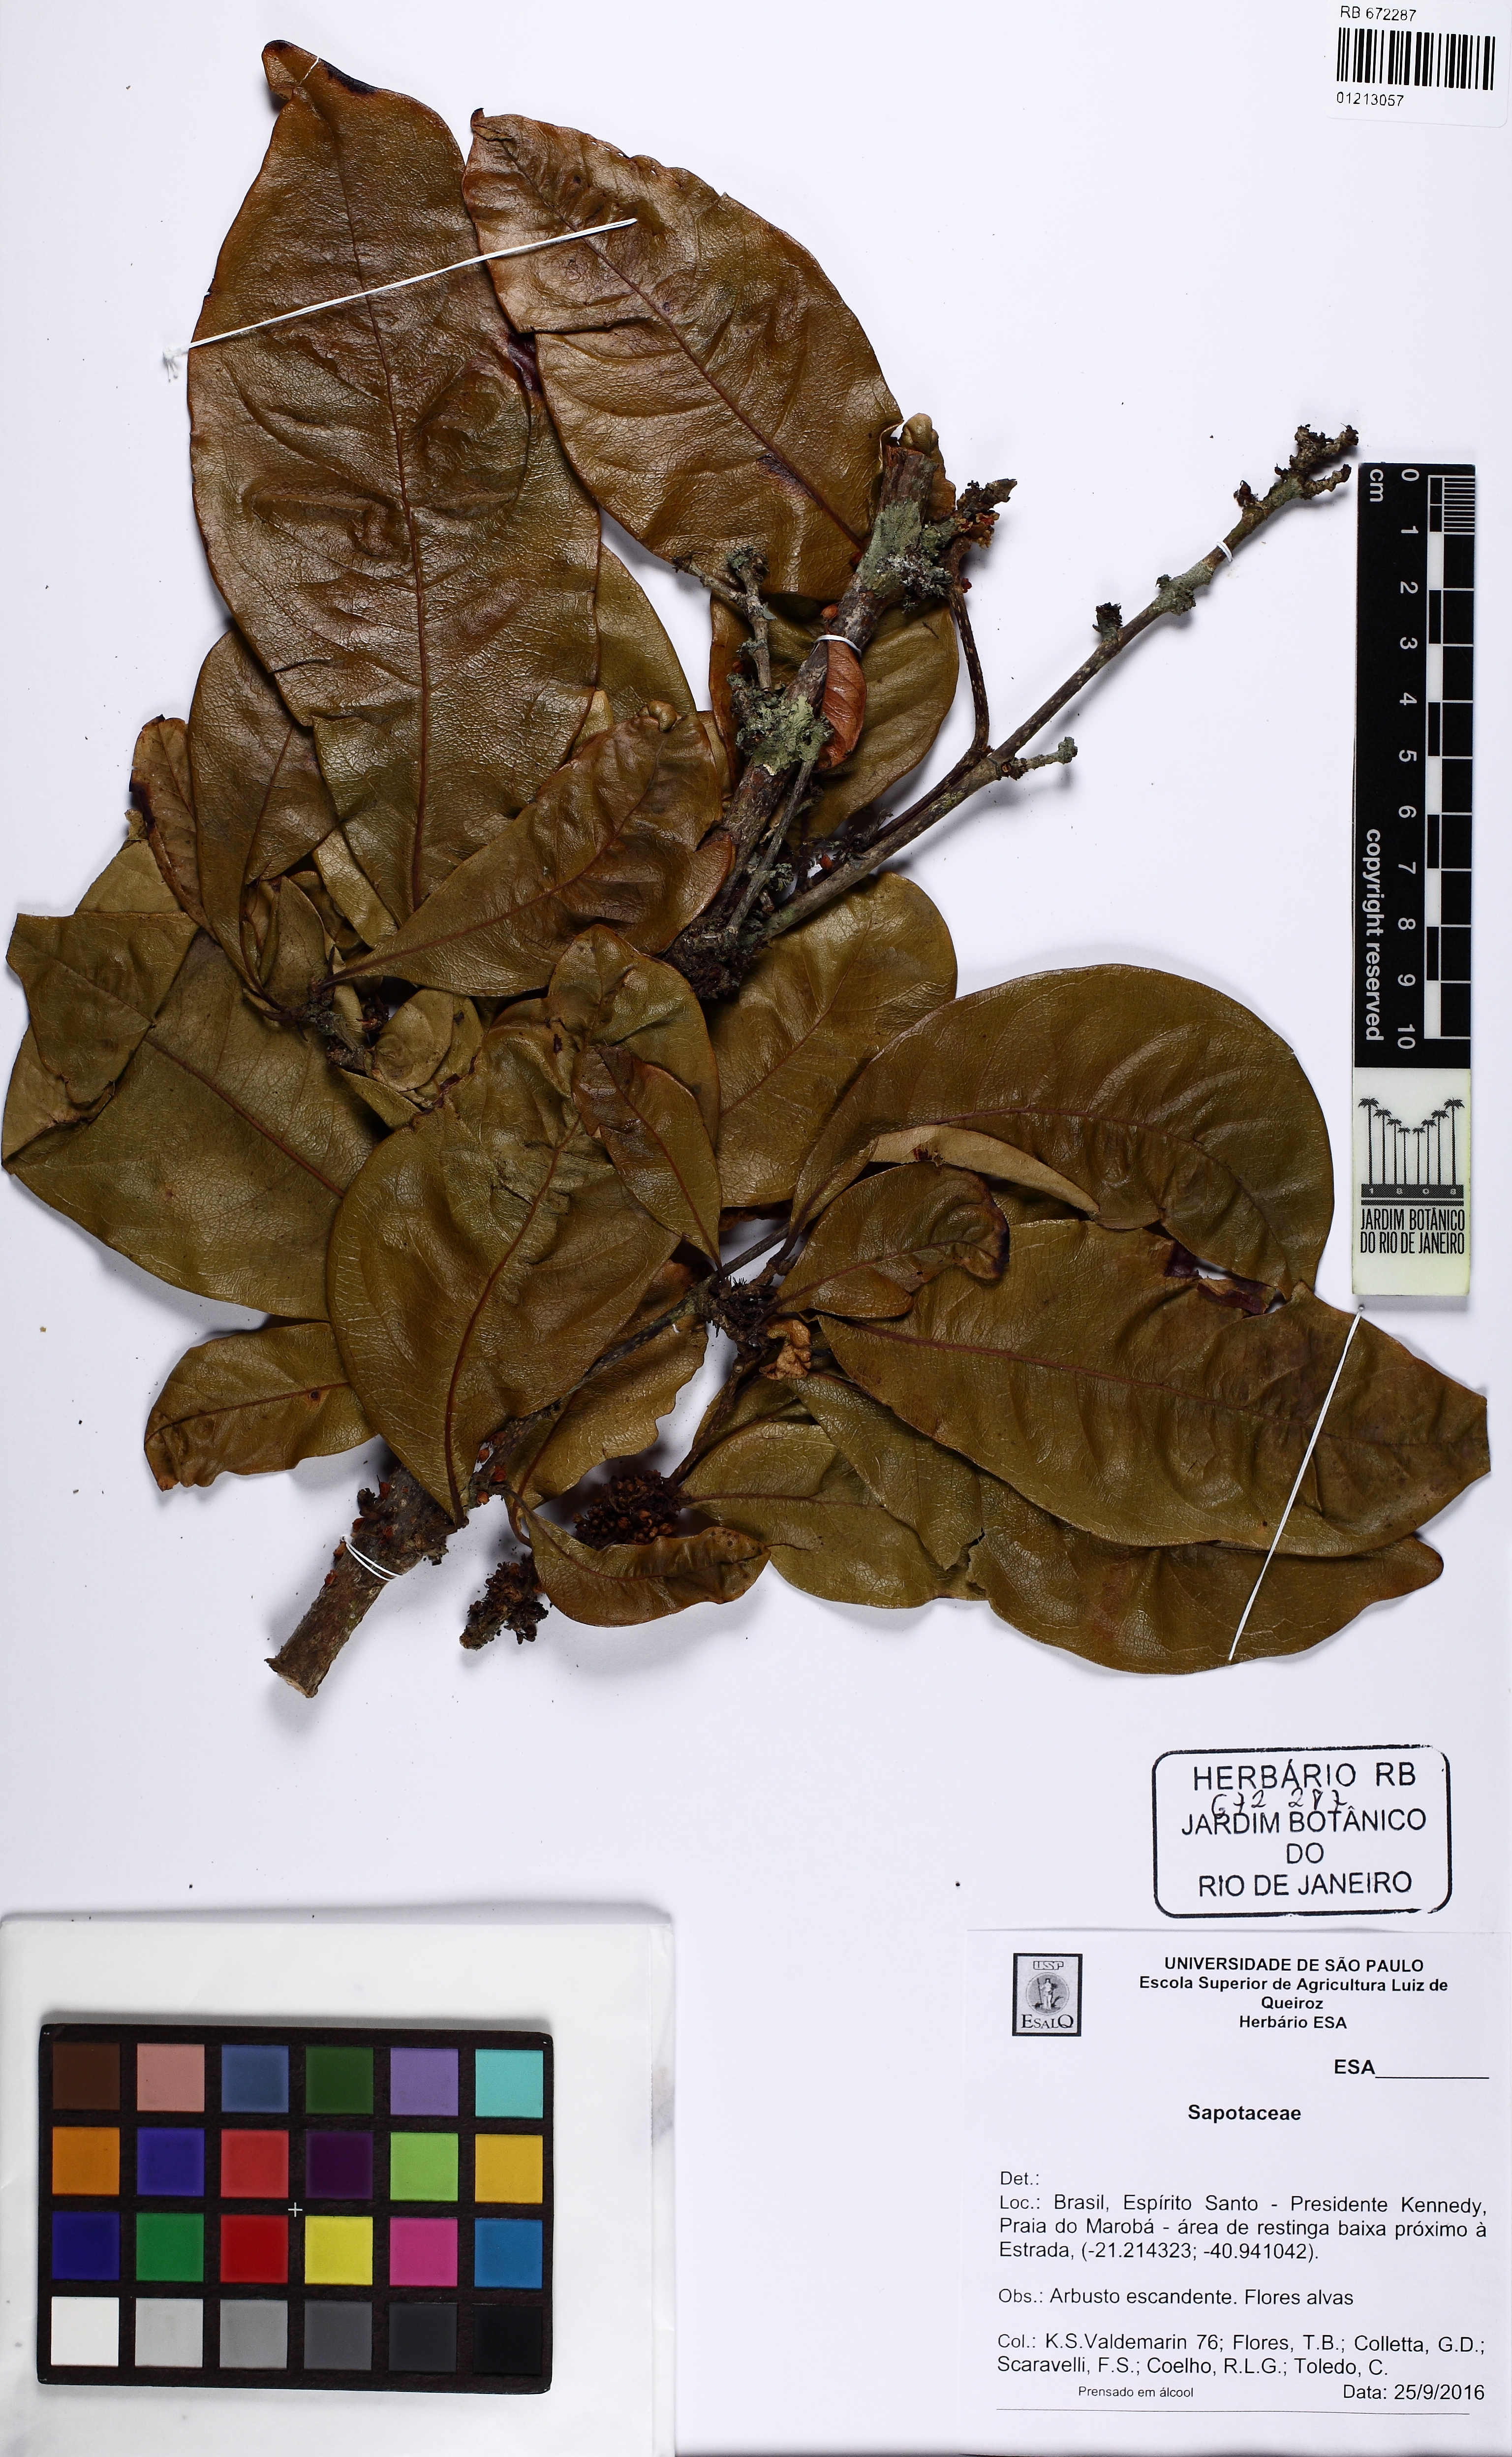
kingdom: Plantae
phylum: Tracheophyta
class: Magnoliopsida
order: Ericales
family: Sapotaceae
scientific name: Sapotaceae
